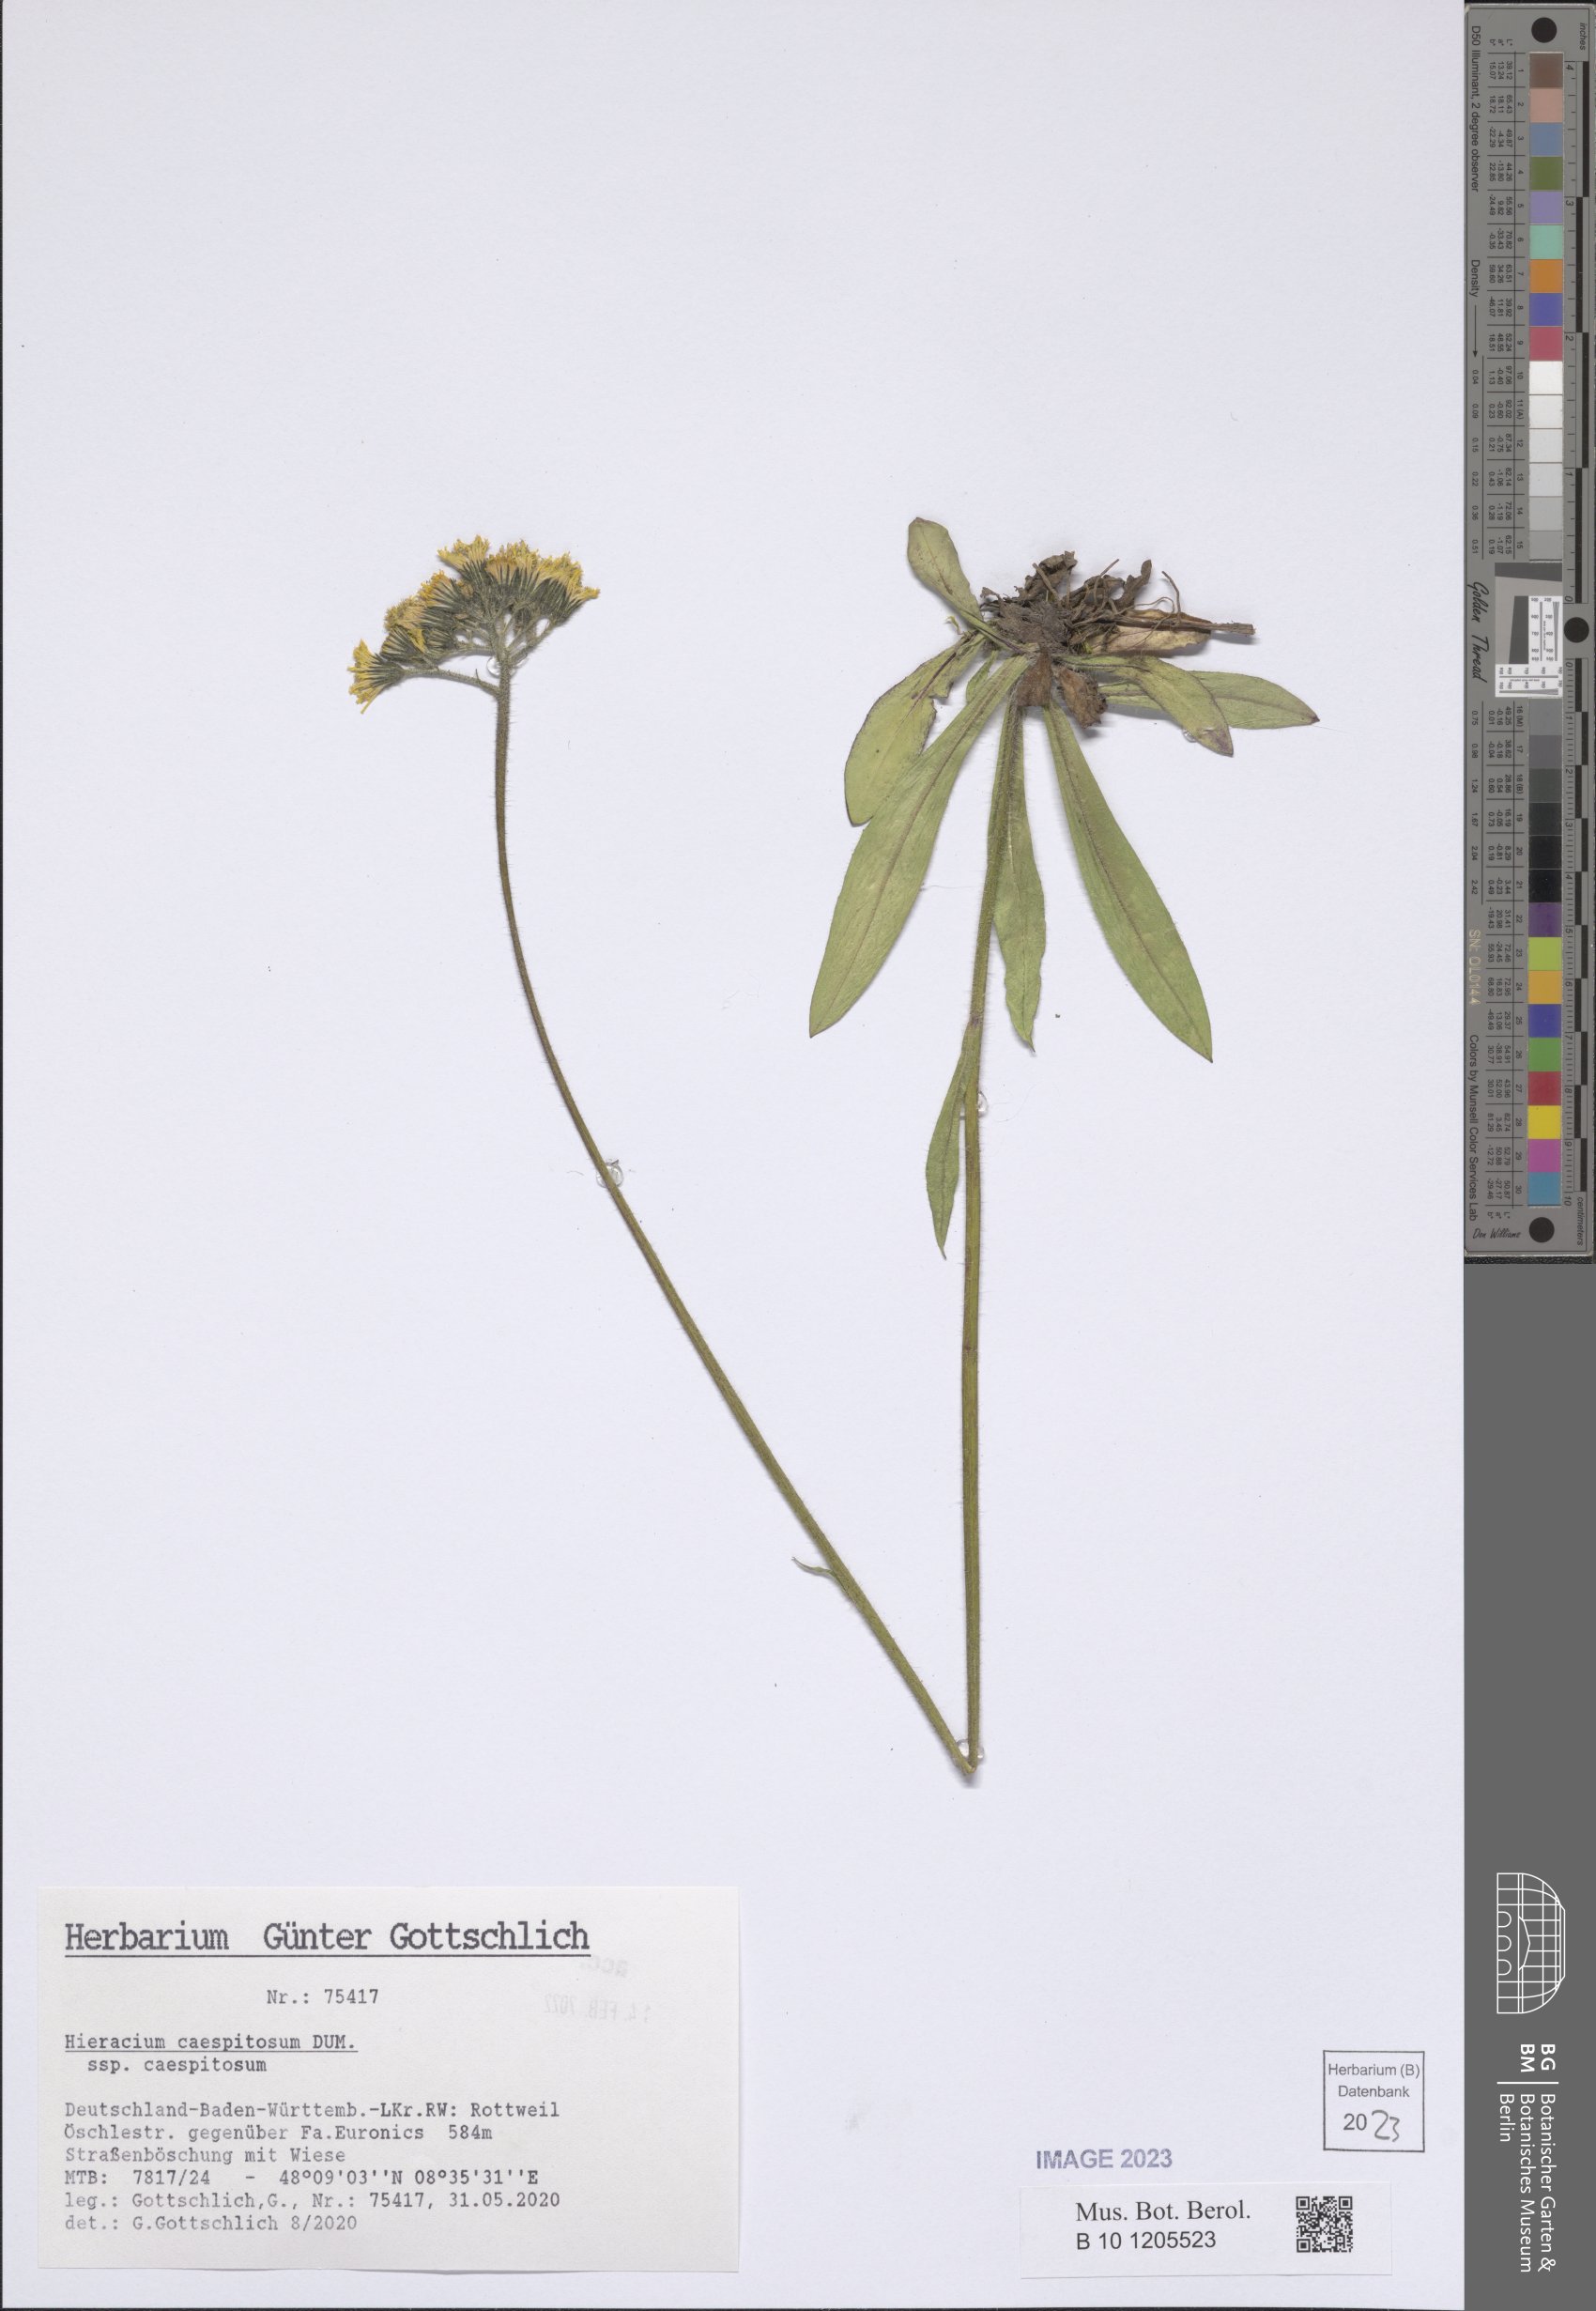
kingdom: Plantae
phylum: Tracheophyta
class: Magnoliopsida
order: Asterales
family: Asteraceae
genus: Pilosella
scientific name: Pilosella caespitosa
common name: Yellow fox-and-cubs
